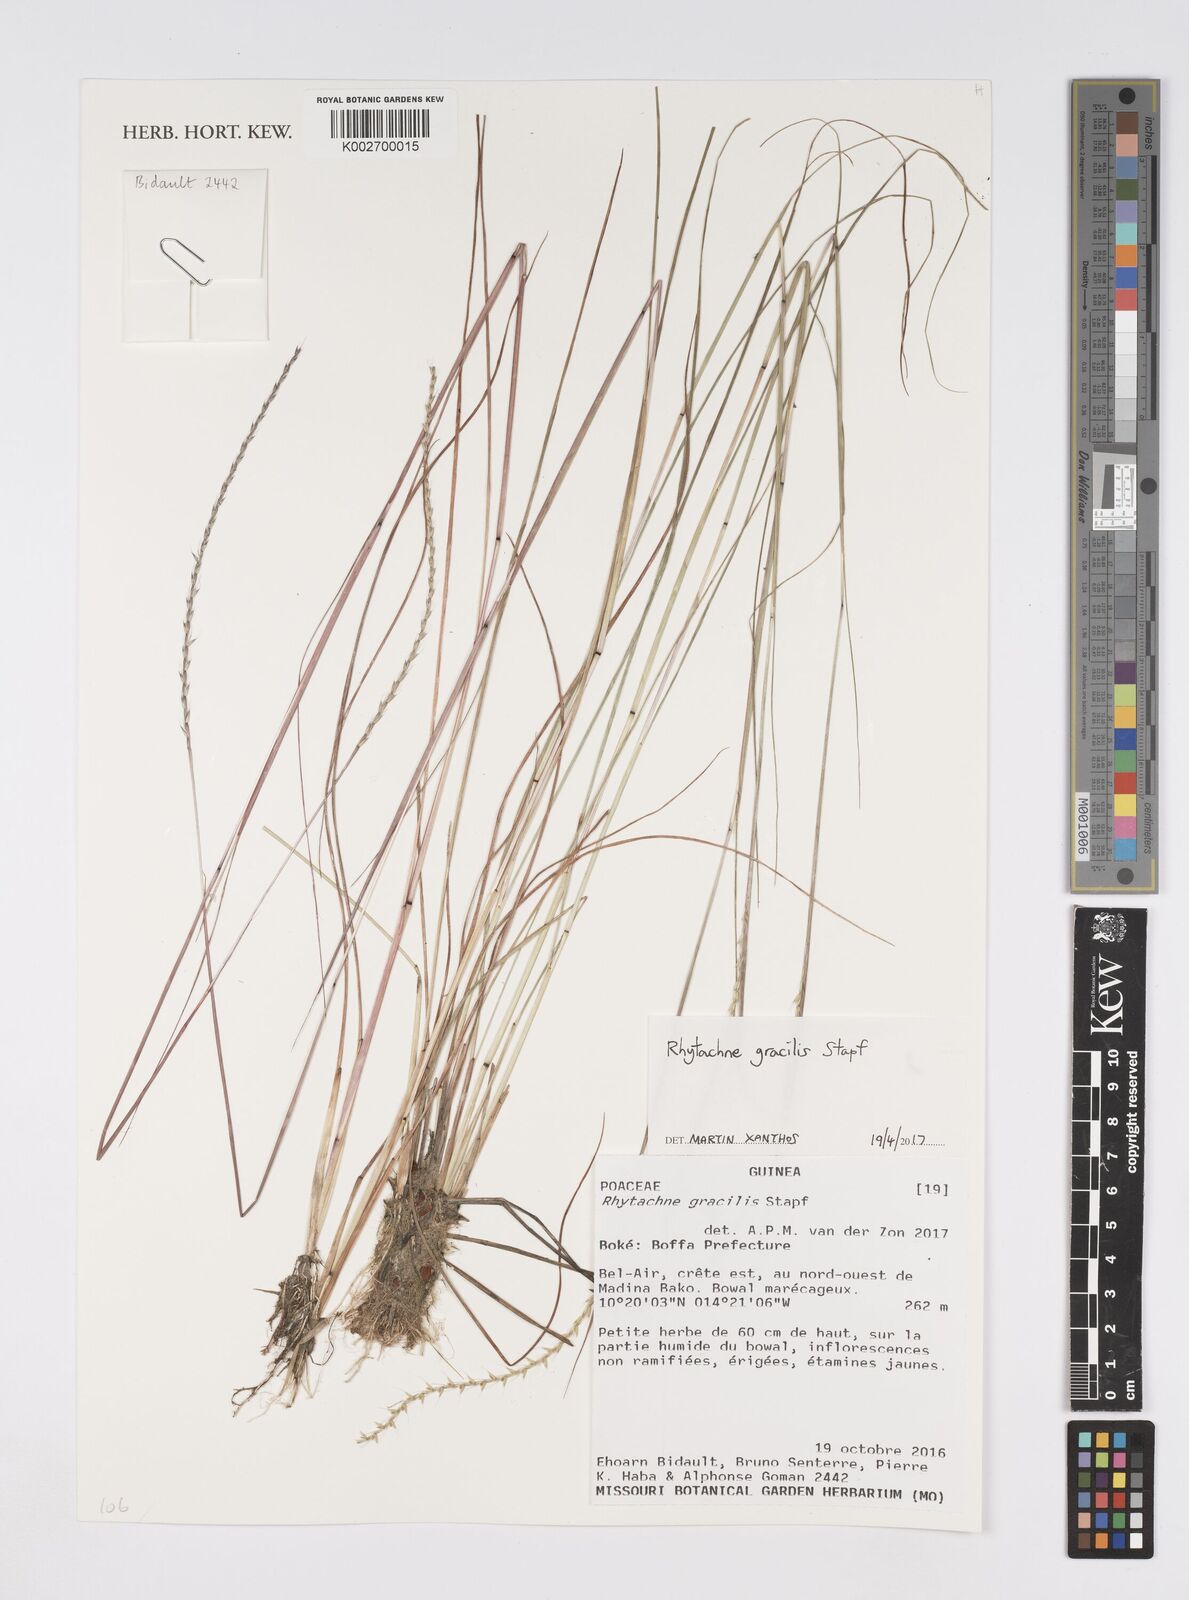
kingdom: Plantae
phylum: Tracheophyta
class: Liliopsida
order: Poales
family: Poaceae
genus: Rhytachne
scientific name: Rhytachne gracilis
